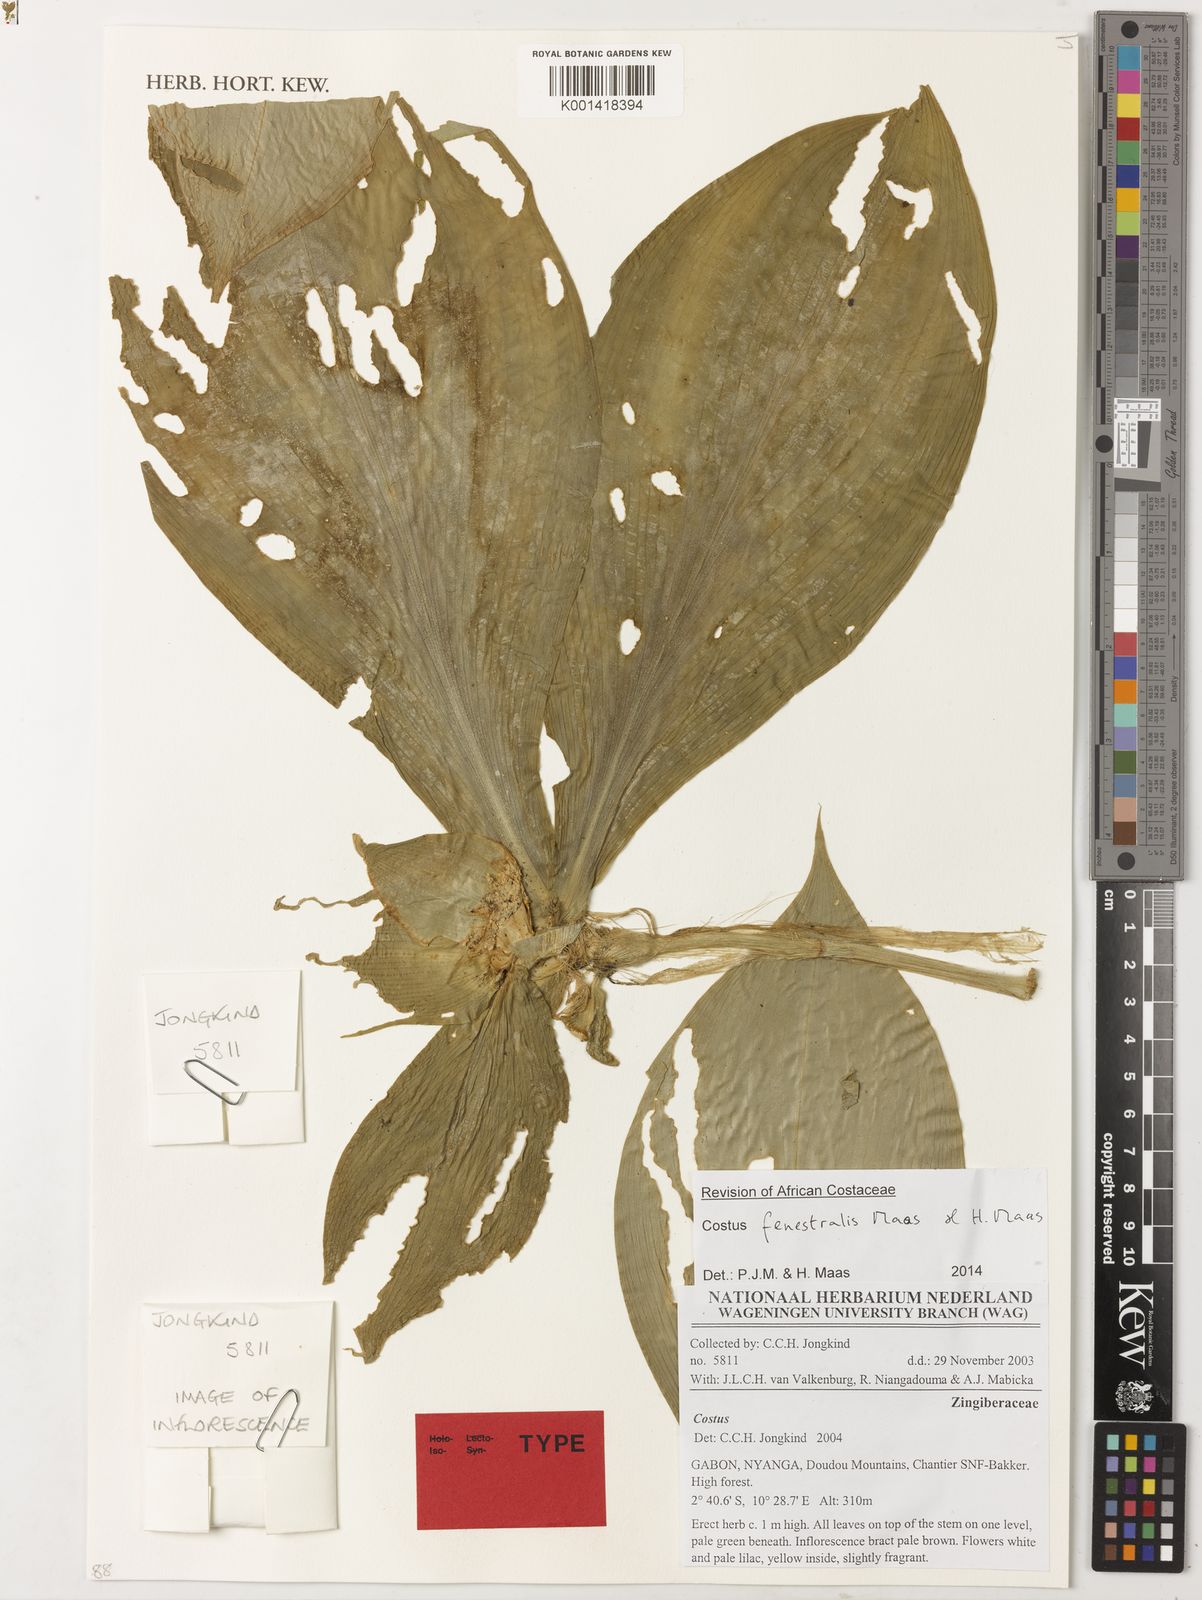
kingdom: Plantae
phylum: Tracheophyta
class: Liliopsida
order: Zingiberales
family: Costaceae
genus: Costus
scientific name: Costus fenestralis
